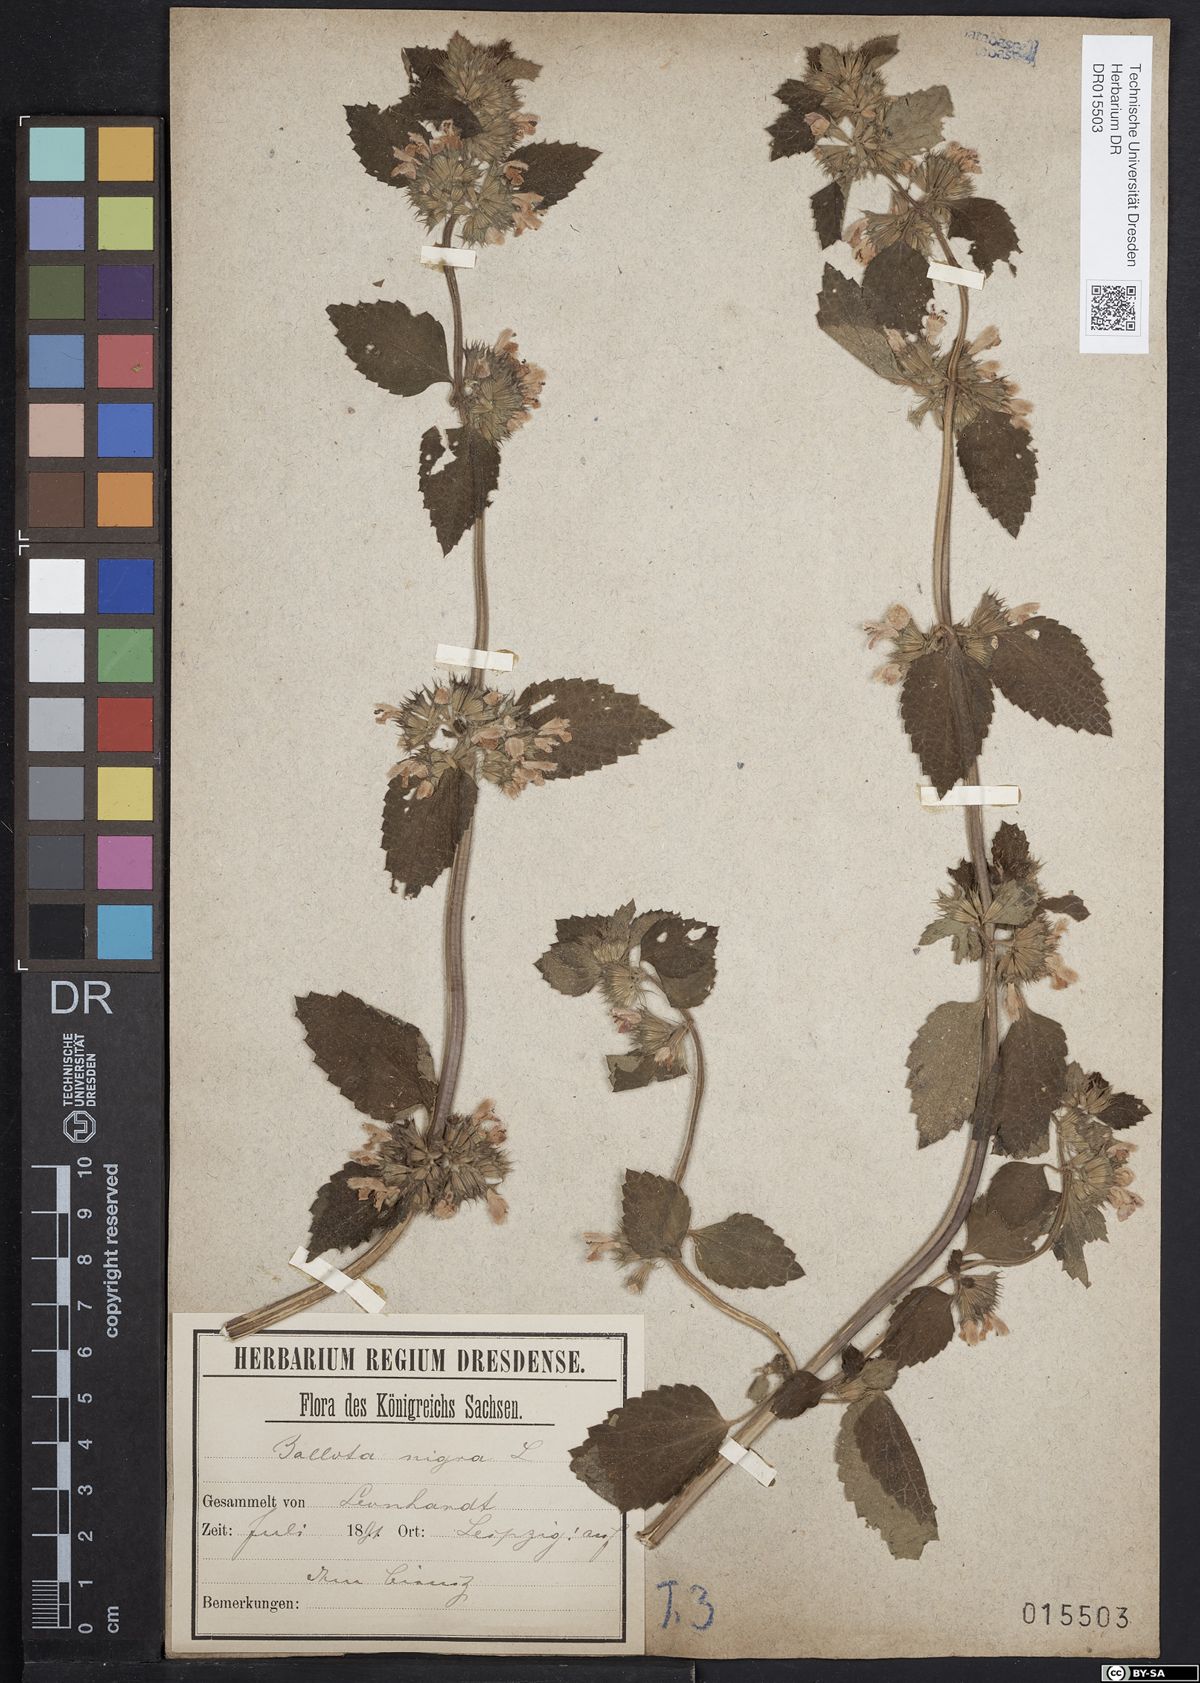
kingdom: Plantae
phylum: Tracheophyta
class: Magnoliopsida
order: Lamiales
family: Lamiaceae
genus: Ballota
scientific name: Ballota nigra
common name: Black horehound
